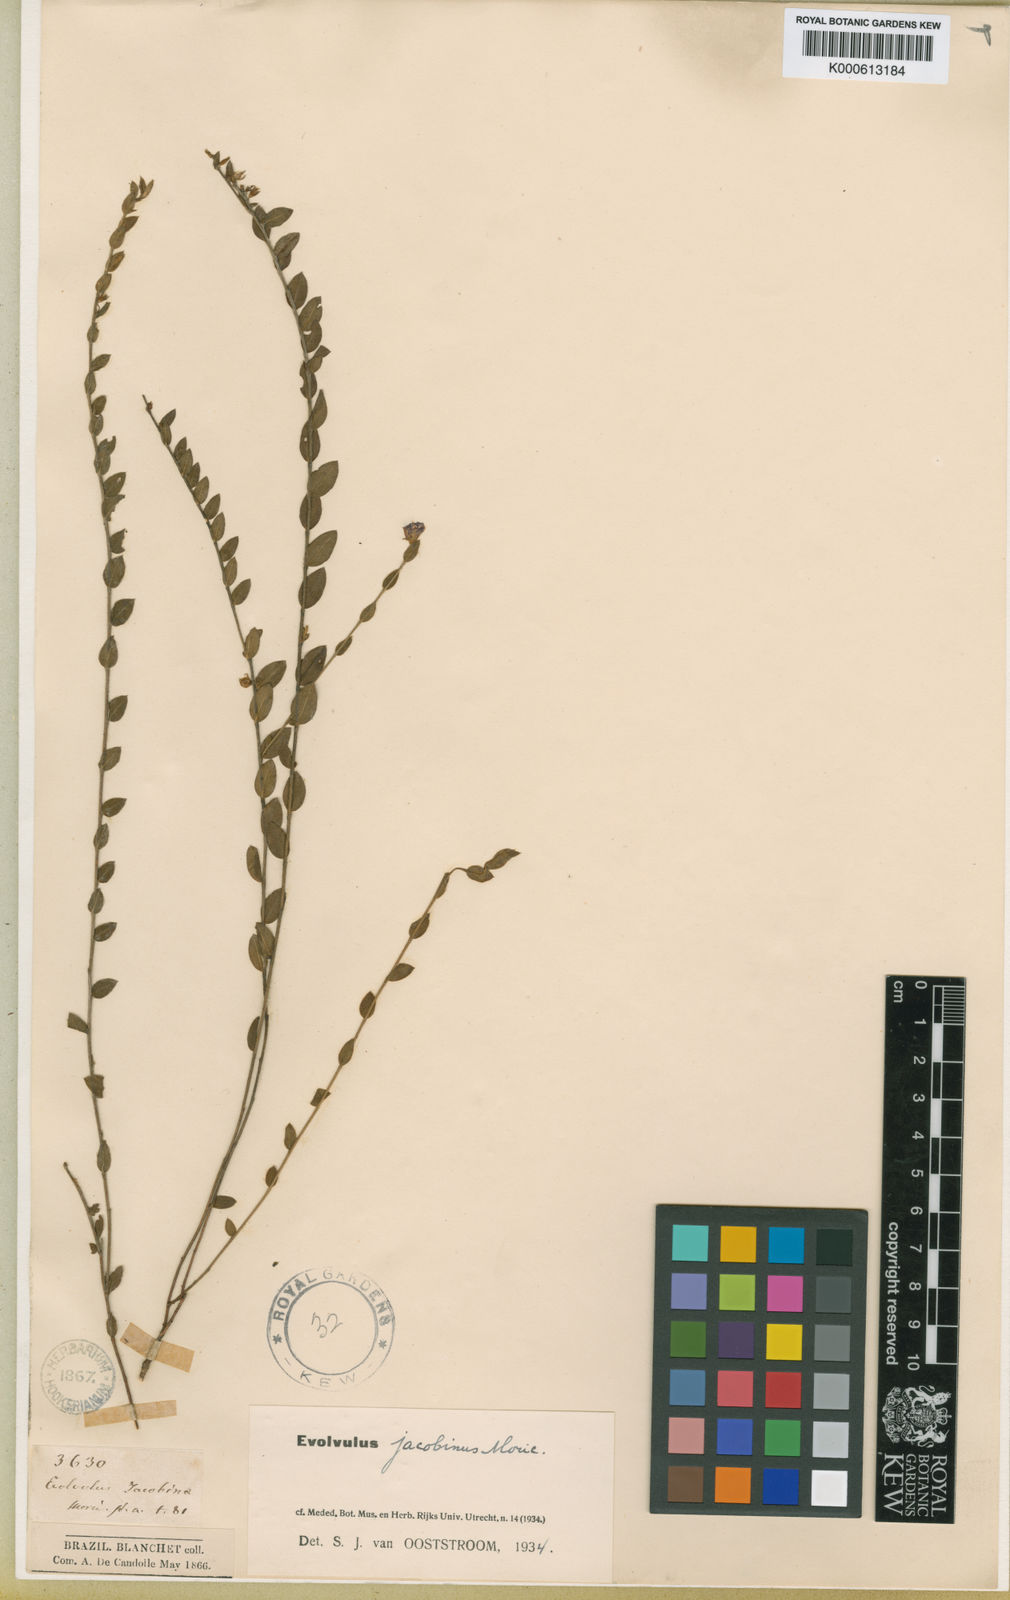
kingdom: Plantae
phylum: Tracheophyta
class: Magnoliopsida
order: Solanales
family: Convolvulaceae
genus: Evolvulus
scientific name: Evolvulus jacobinus
